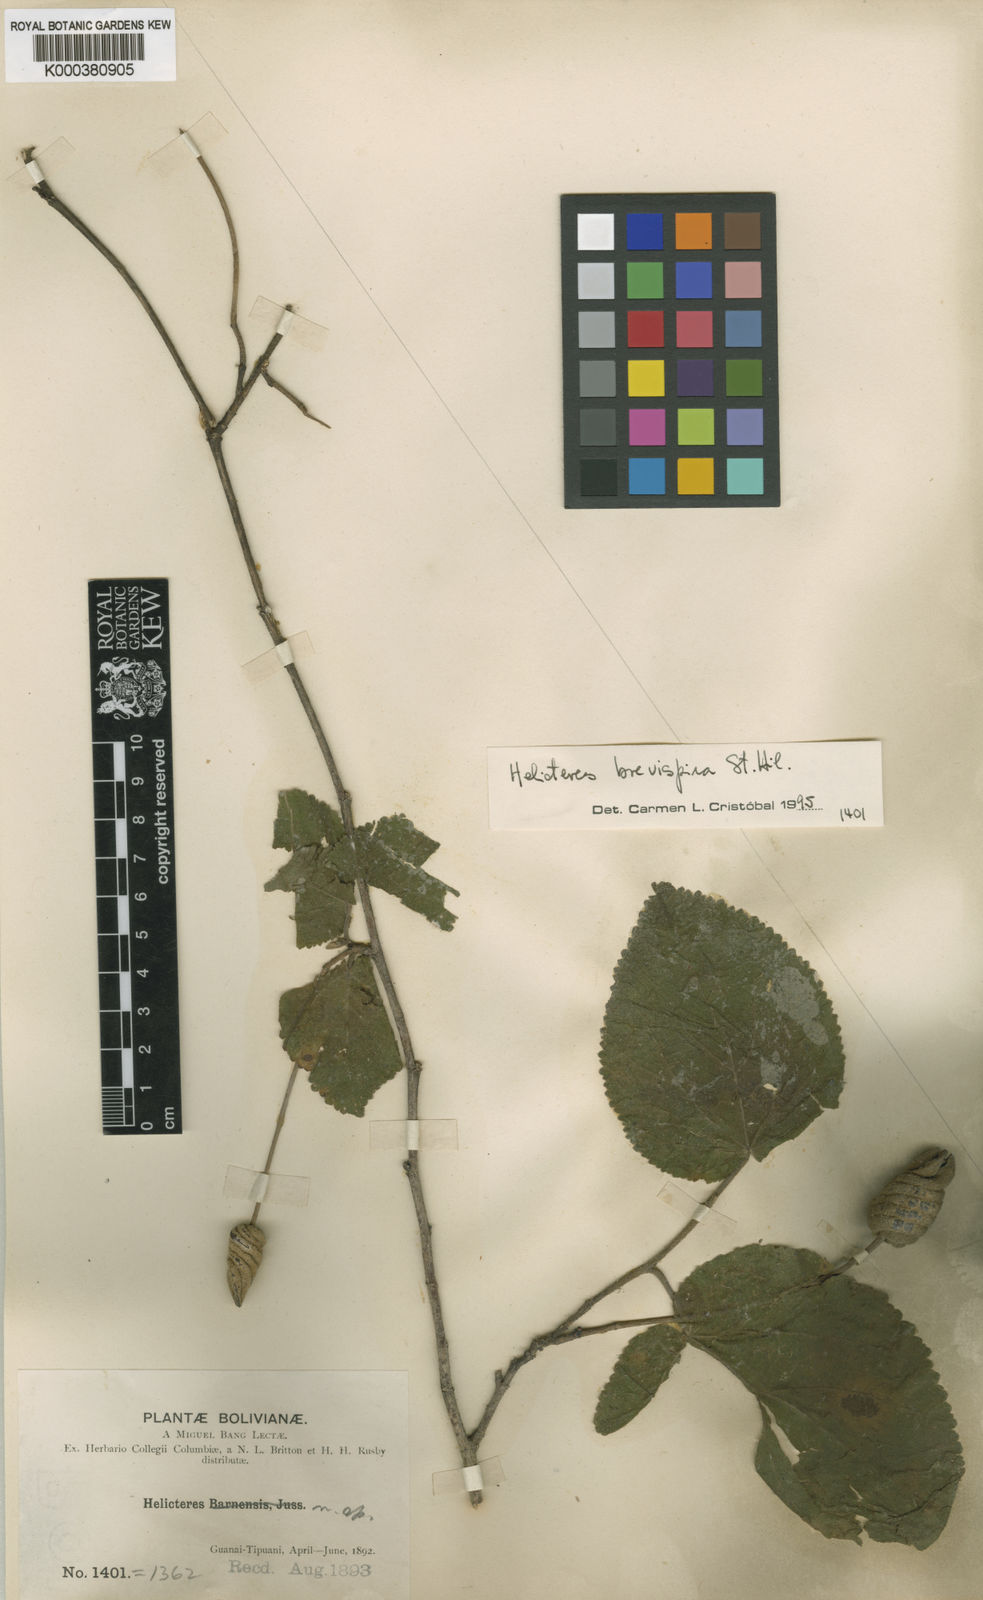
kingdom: Plantae
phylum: Tracheophyta
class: Magnoliopsida
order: Malvales
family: Malvaceae
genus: Helicteres
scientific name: Helicteres
